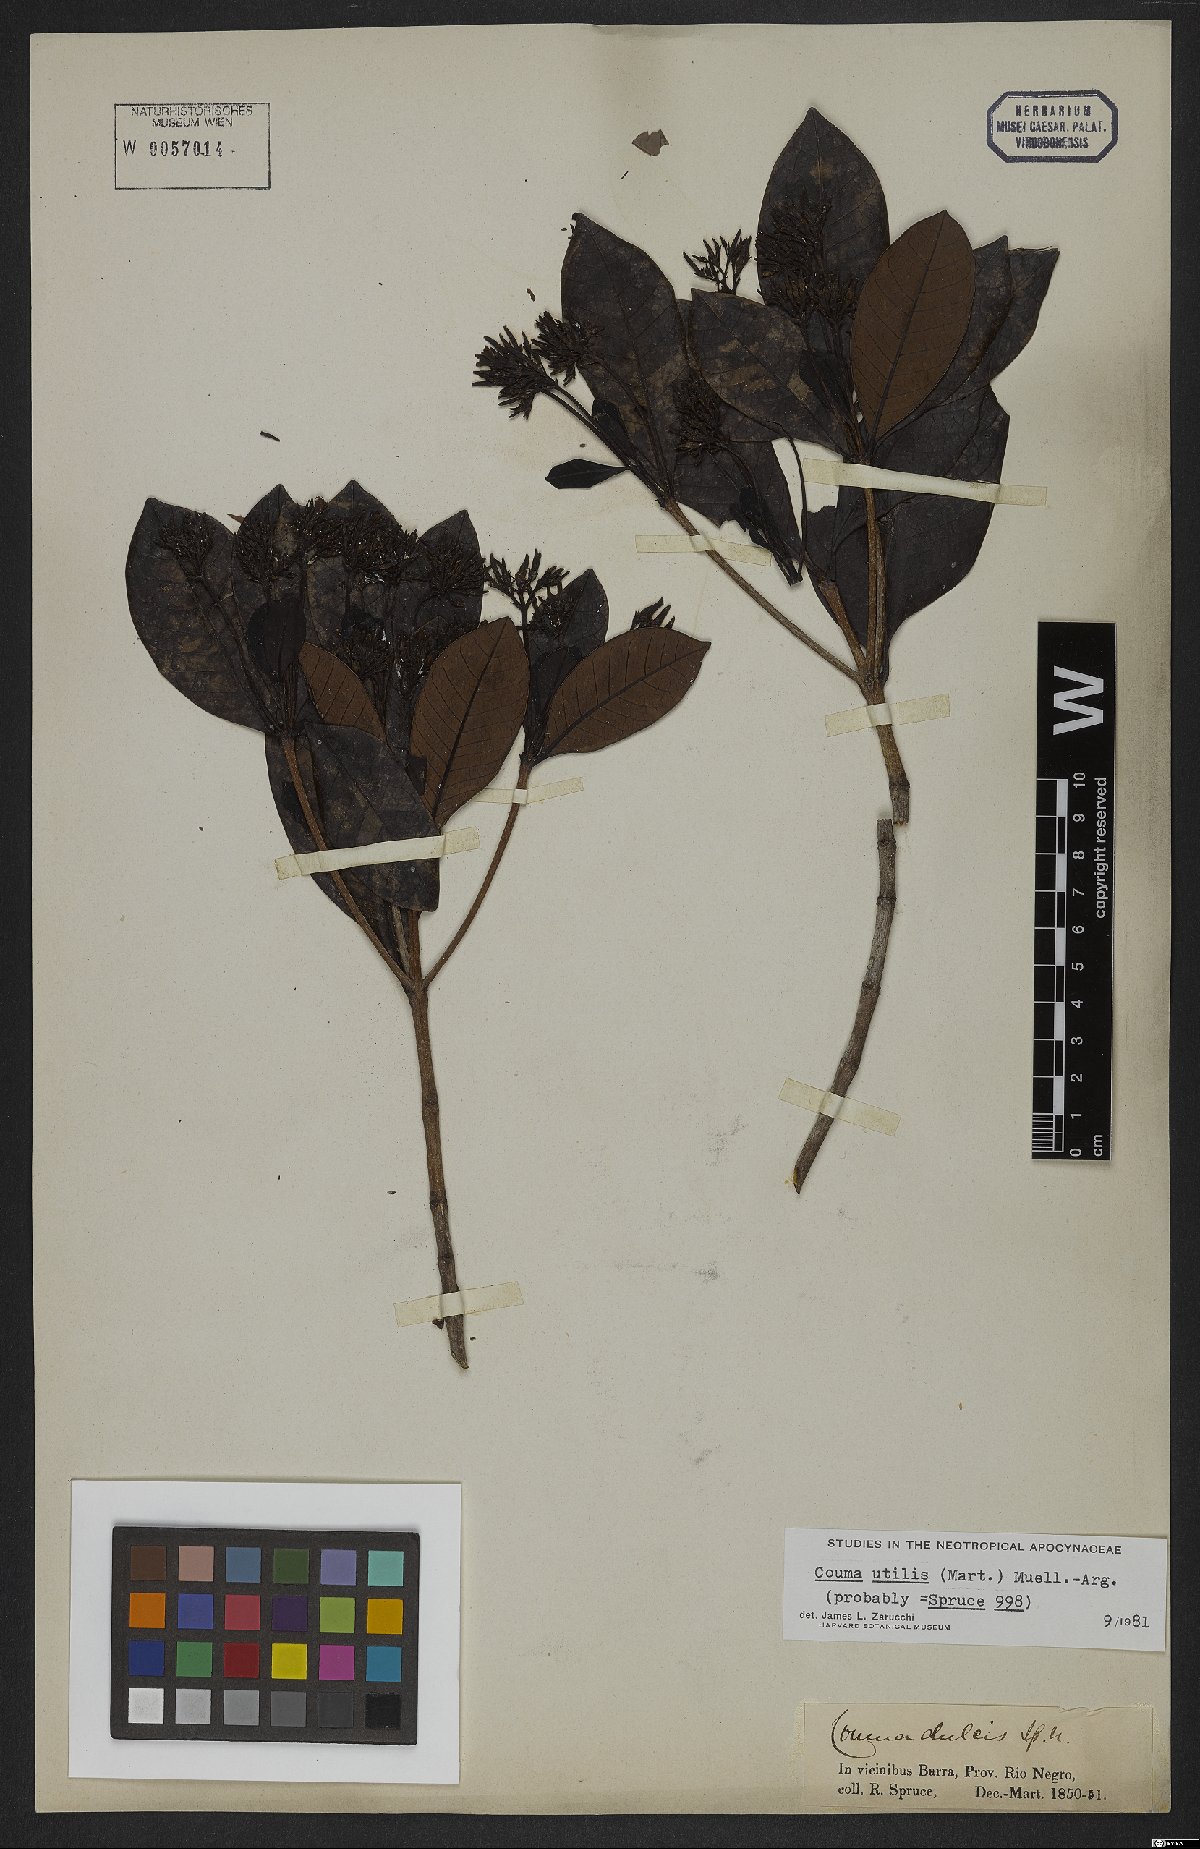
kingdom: Plantae
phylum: Tracheophyta
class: Magnoliopsida
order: Gentianales
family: Apocynaceae
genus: Couma
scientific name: Couma utilis
